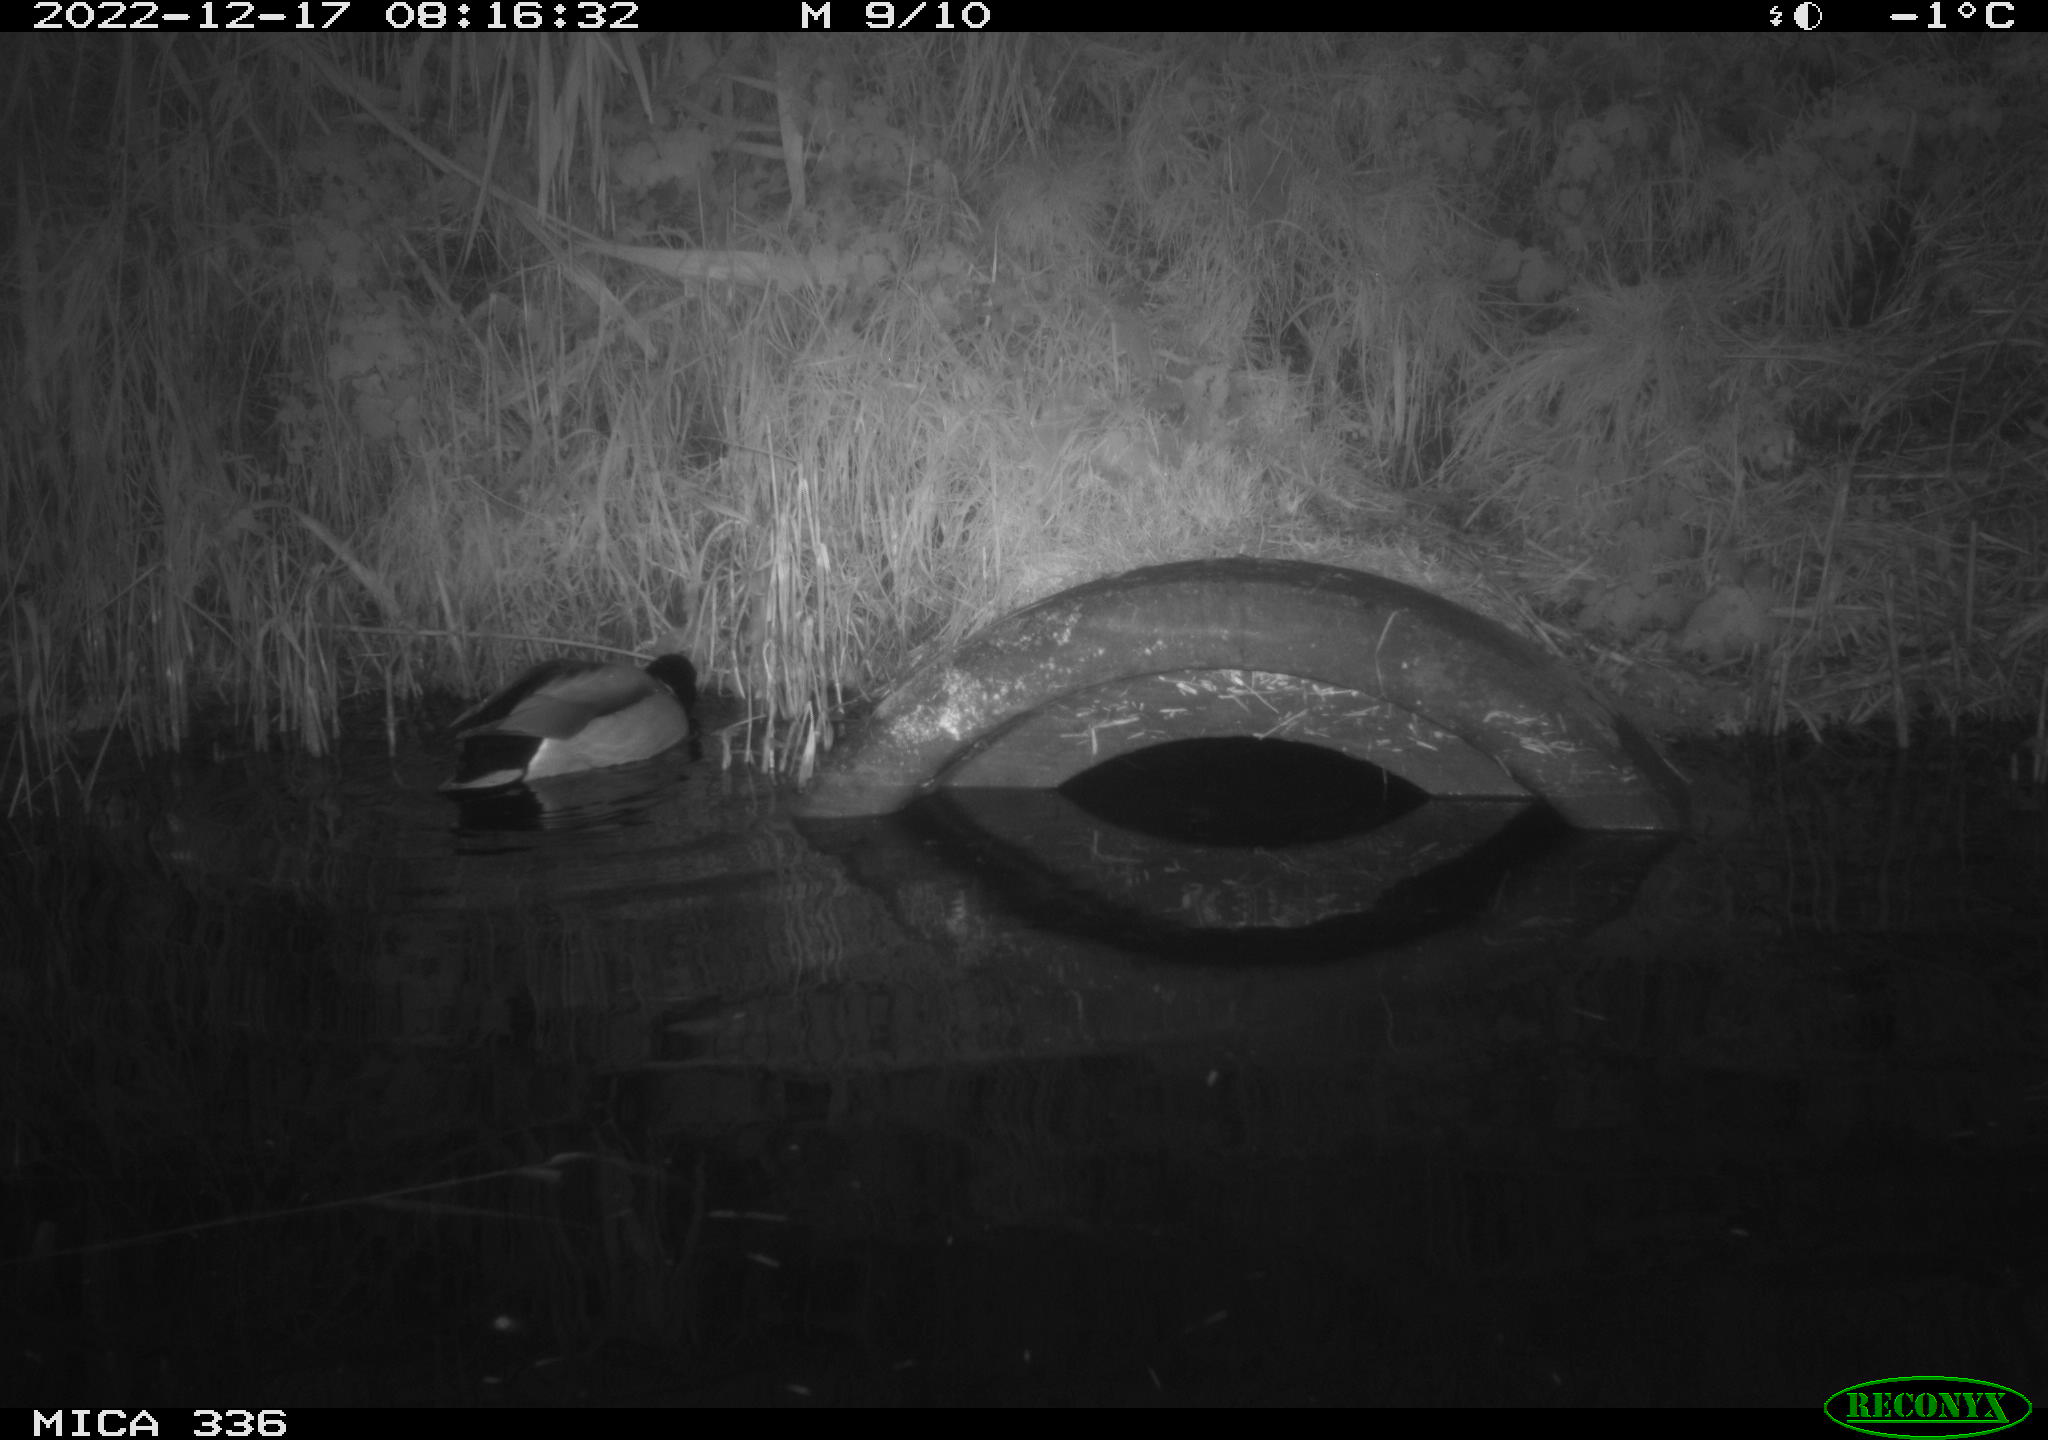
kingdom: Animalia
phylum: Chordata
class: Aves
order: Anseriformes
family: Anatidae
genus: Anas
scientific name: Anas
